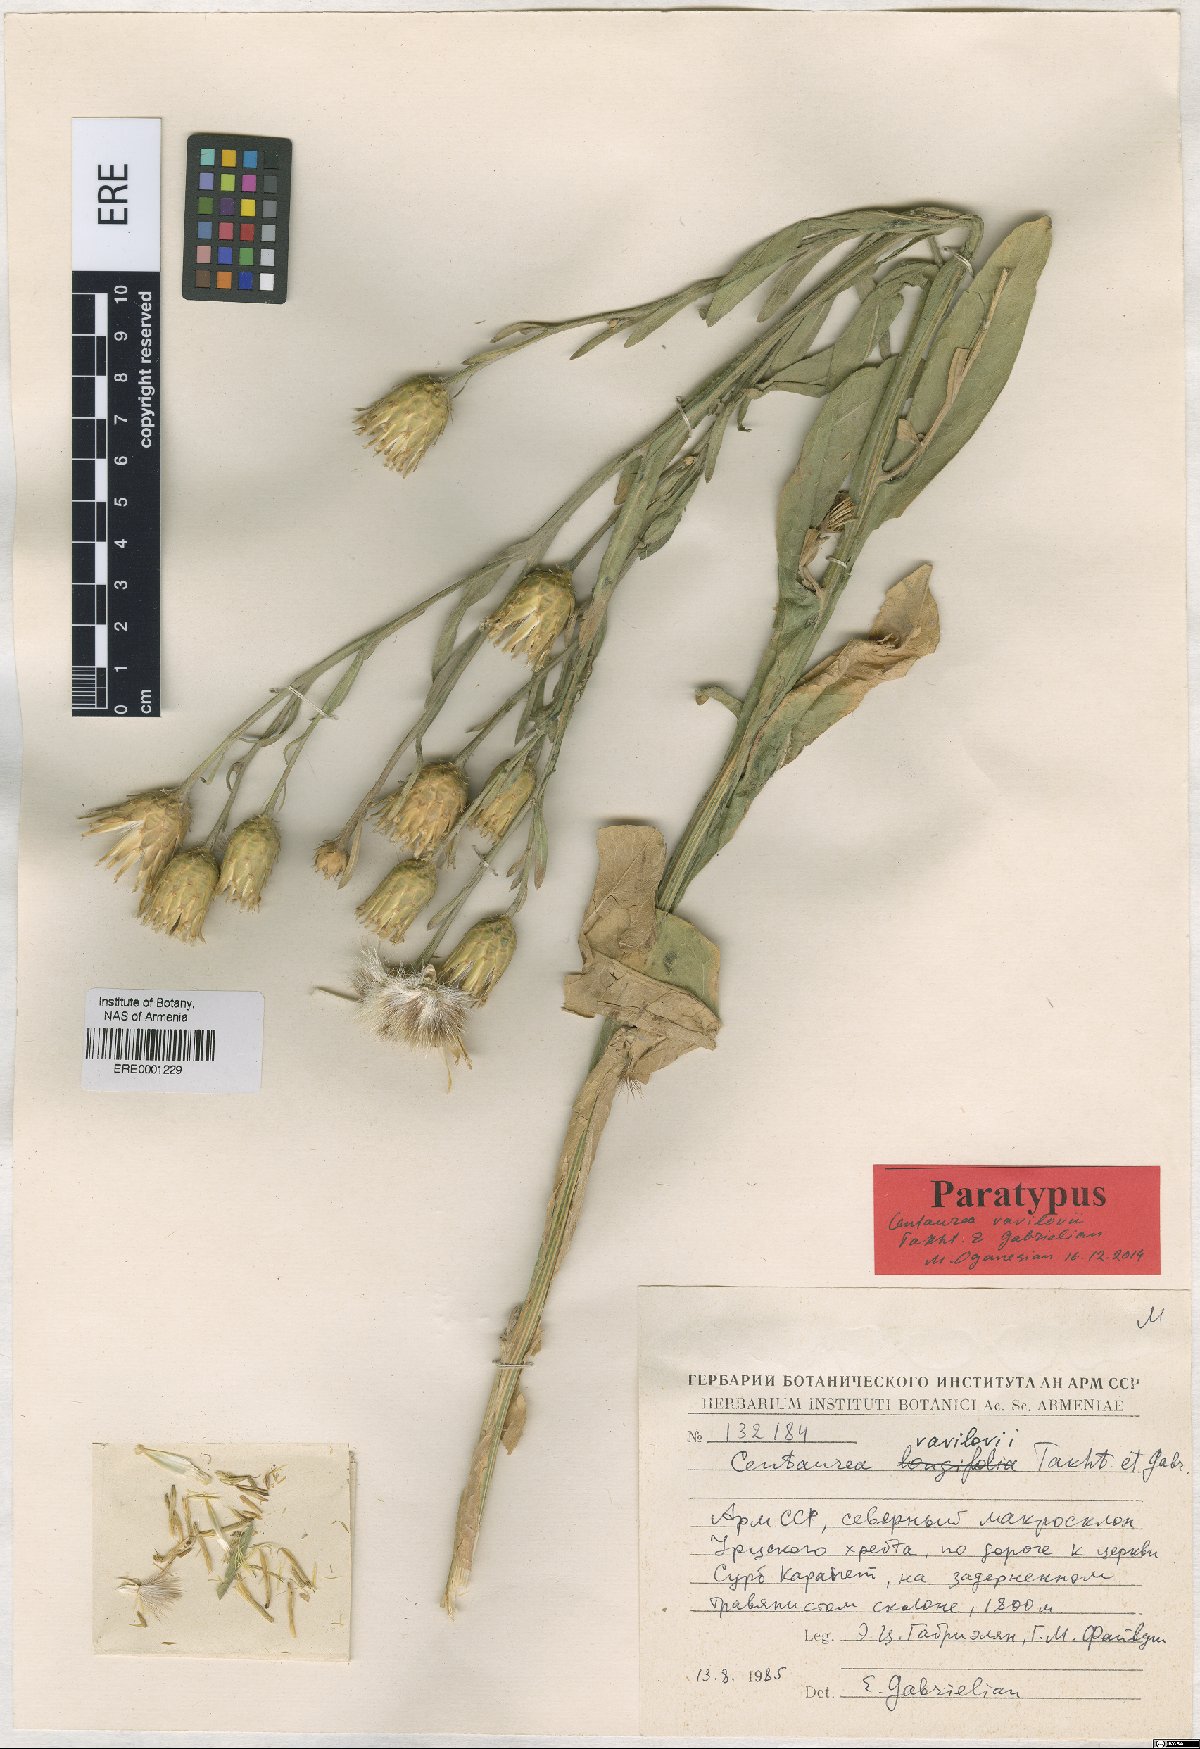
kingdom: Plantae
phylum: Tracheophyta
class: Magnoliopsida
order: Asterales
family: Asteraceae
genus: Centaurea
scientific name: Centaurea vavilovii
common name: Vavilov's centaury
